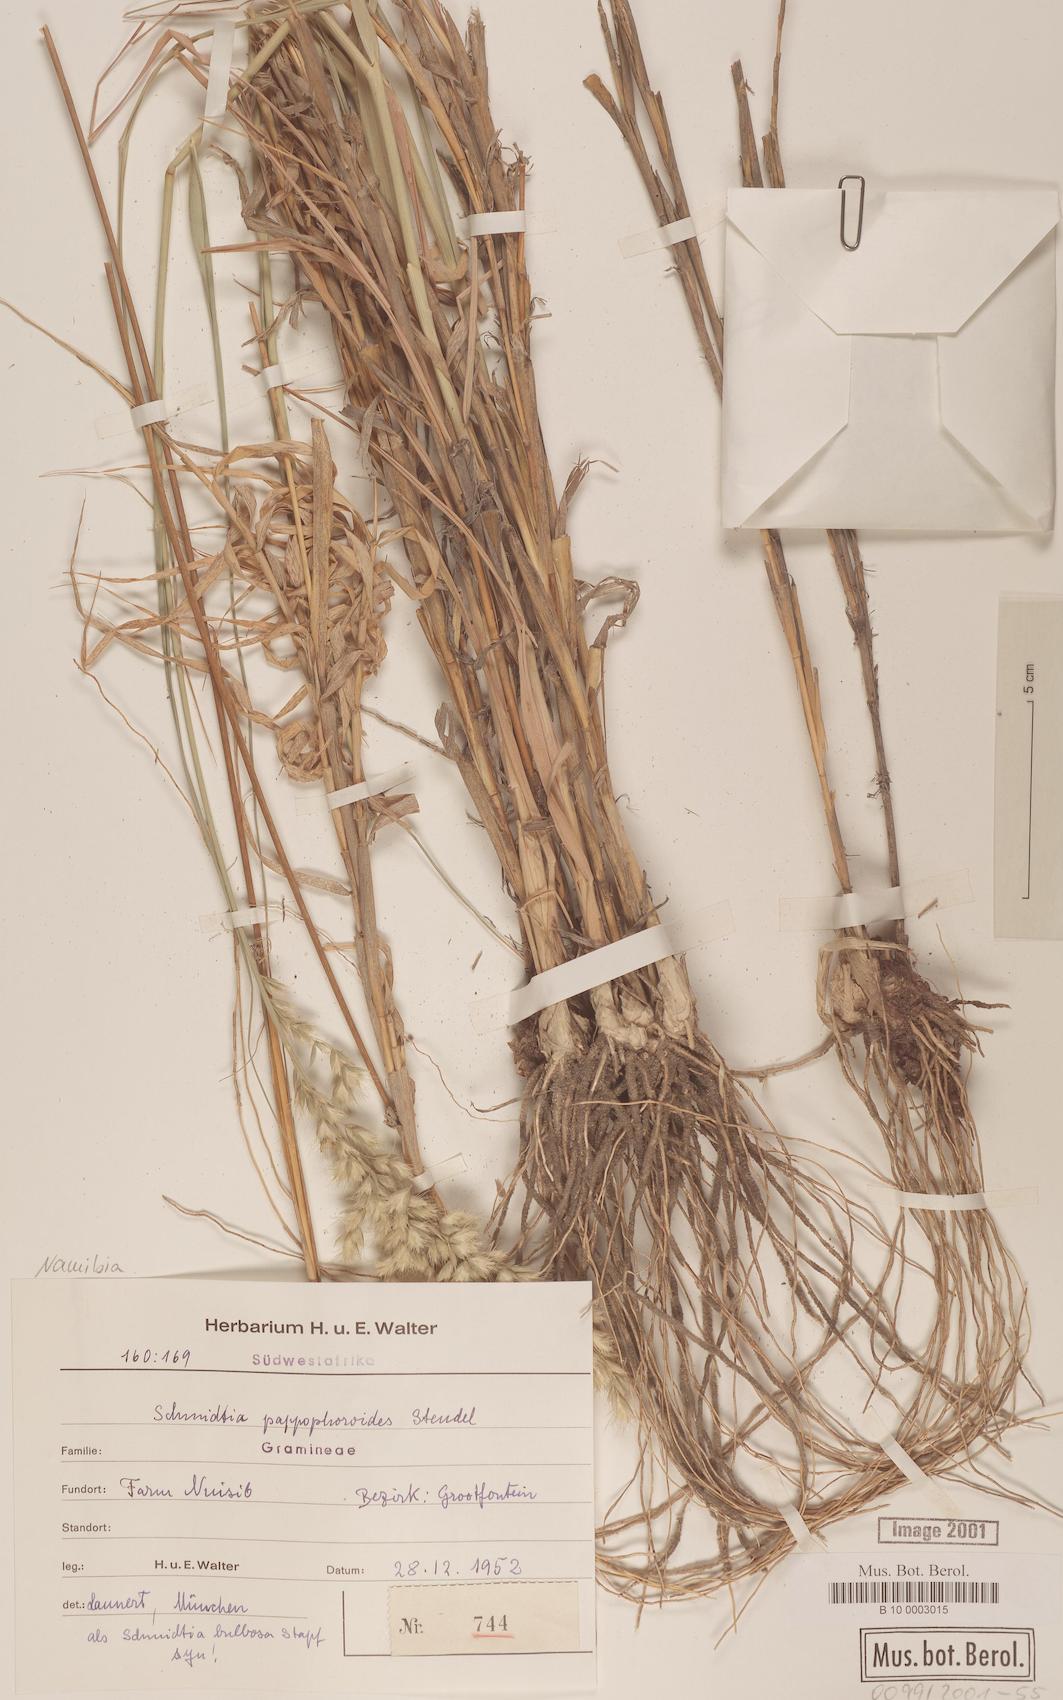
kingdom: Plantae
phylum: Tracheophyta
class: Liliopsida
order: Poales
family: Poaceae
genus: Schmidtia
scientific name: Schmidtia pappophoroides
